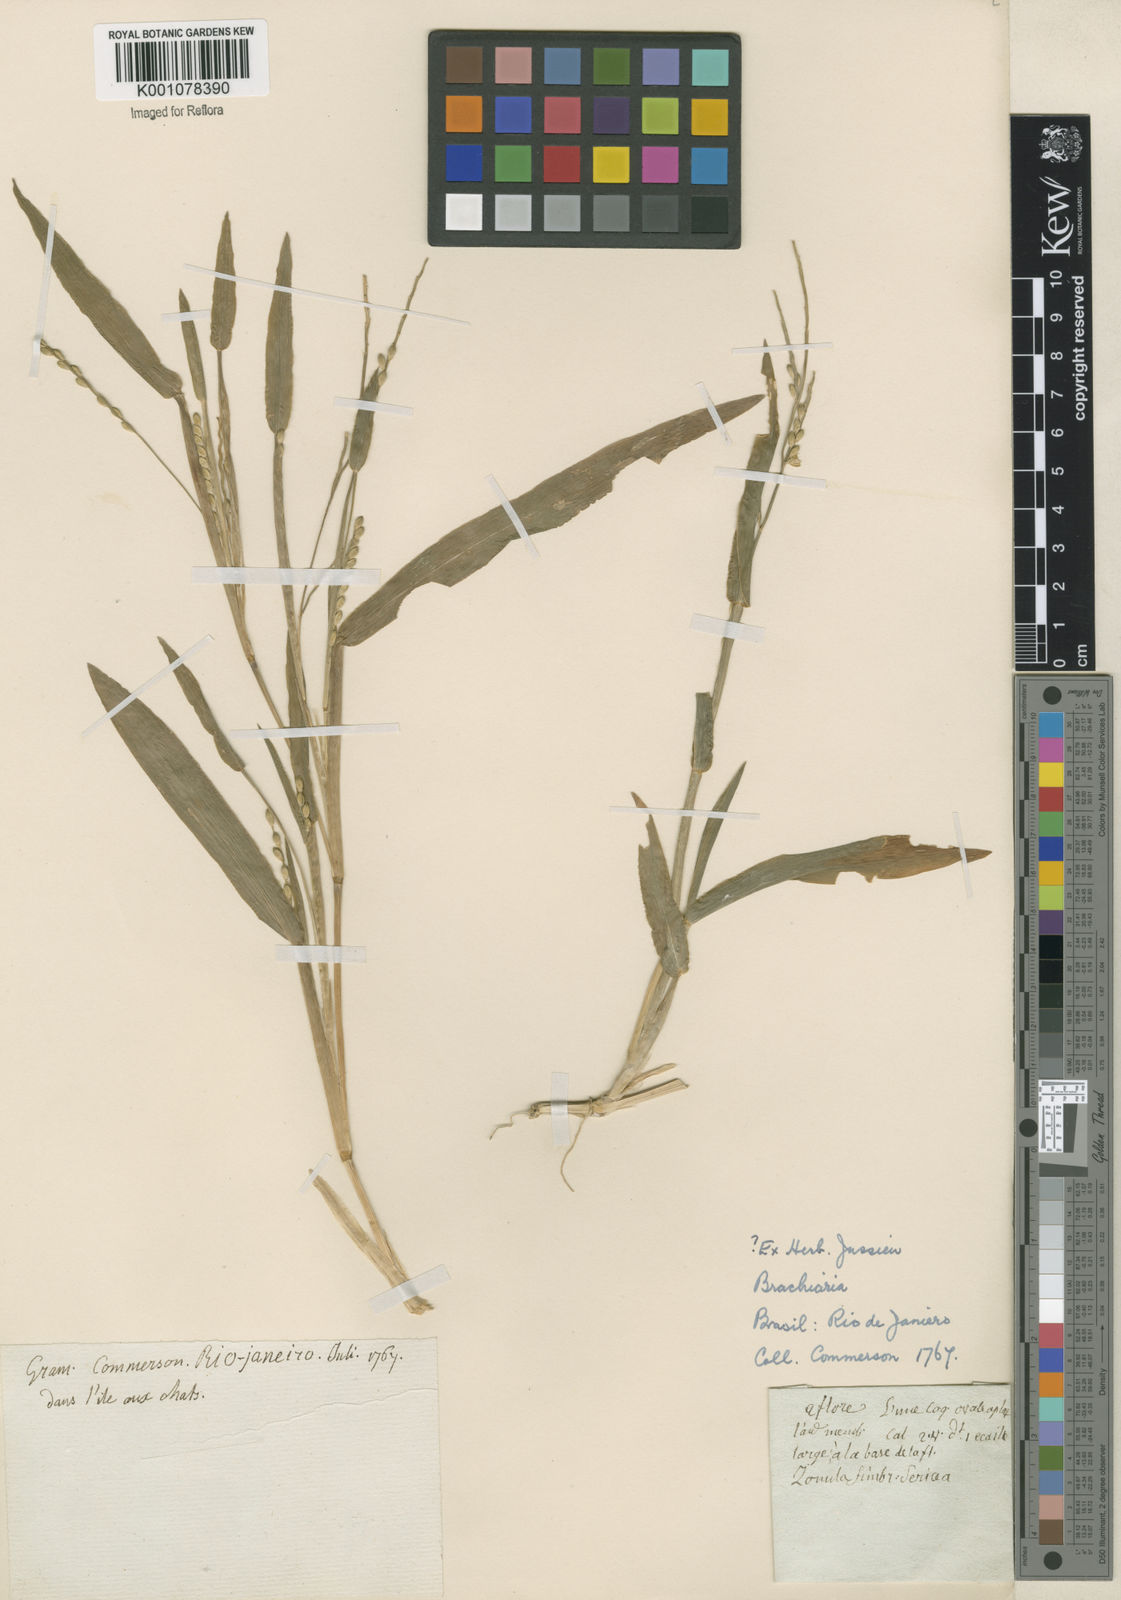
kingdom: Plantae
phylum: Tracheophyta
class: Liliopsida
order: Poales
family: Poaceae
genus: Urochloa
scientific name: Urochloa plantaginea
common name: Plantain signalgrass
